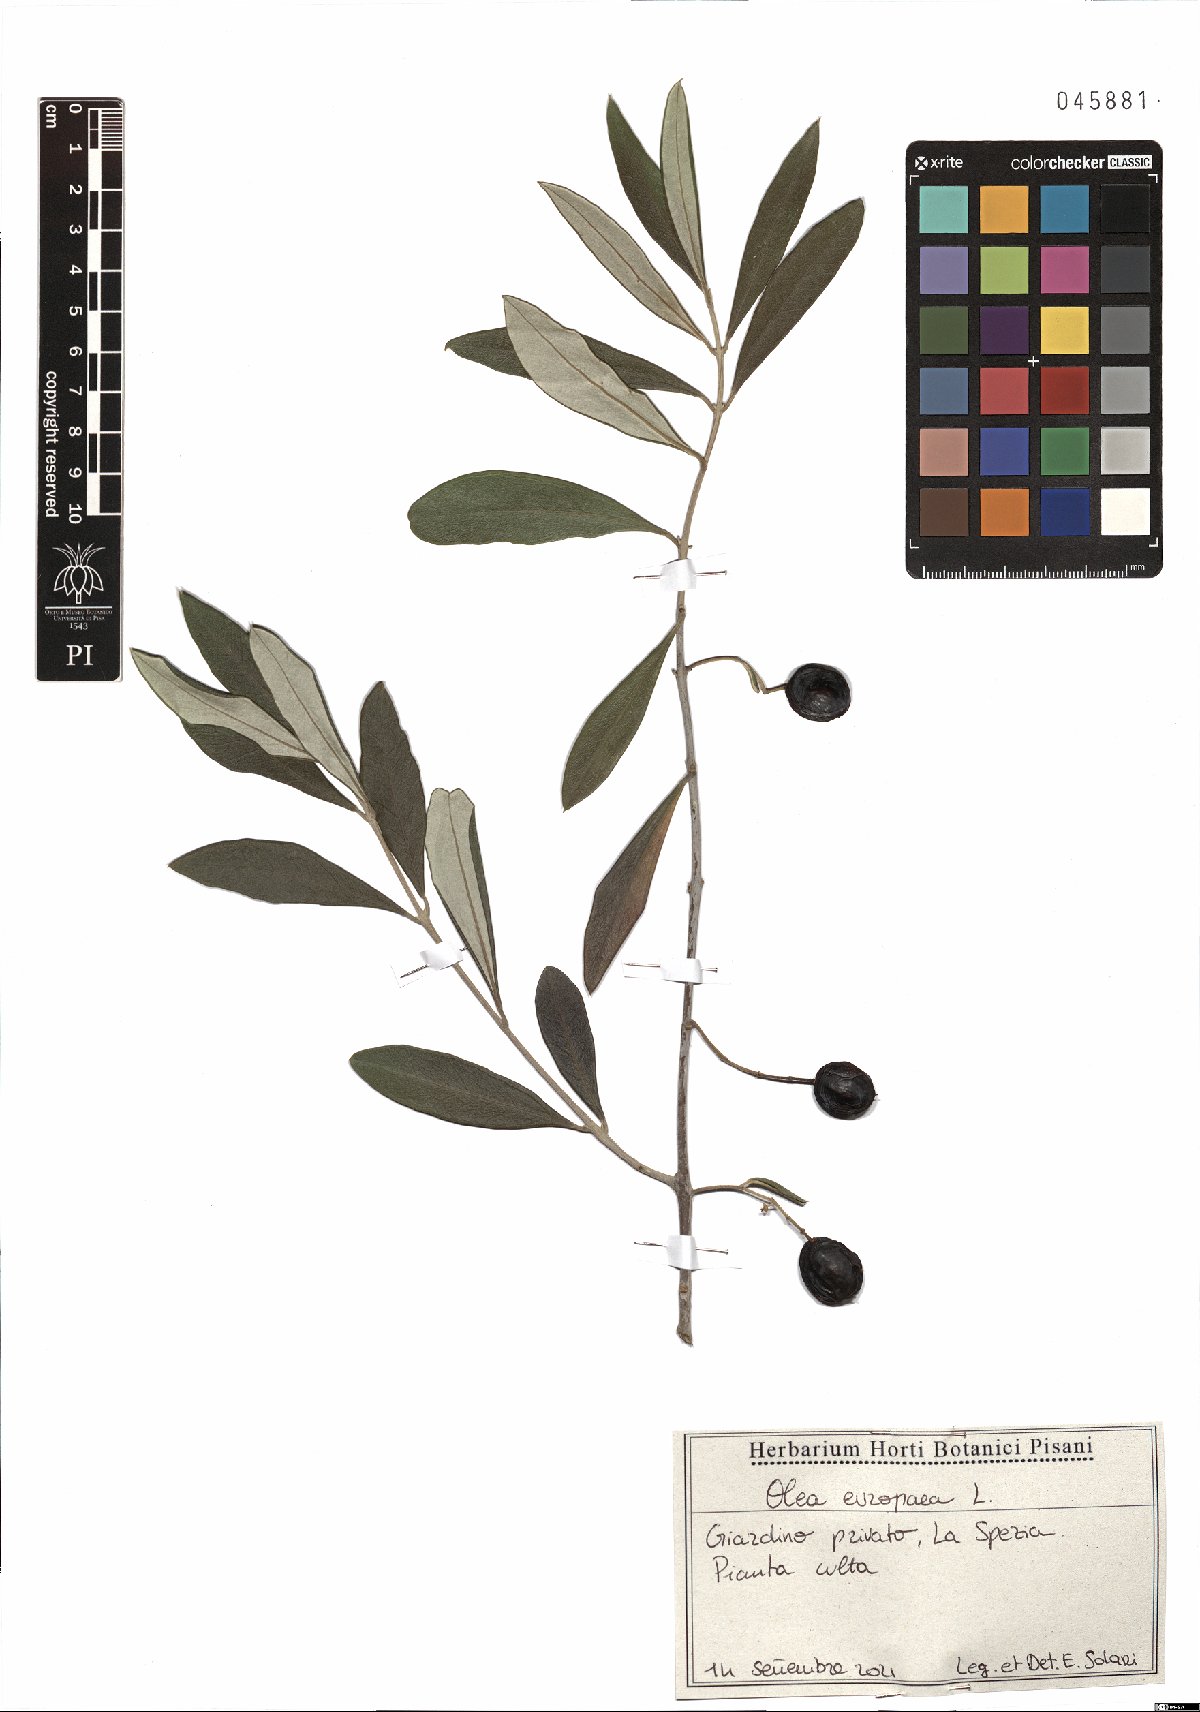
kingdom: Plantae
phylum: Tracheophyta
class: Magnoliopsida
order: Lamiales
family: Oleaceae
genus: Olea
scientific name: Olea europaea
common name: Olive
